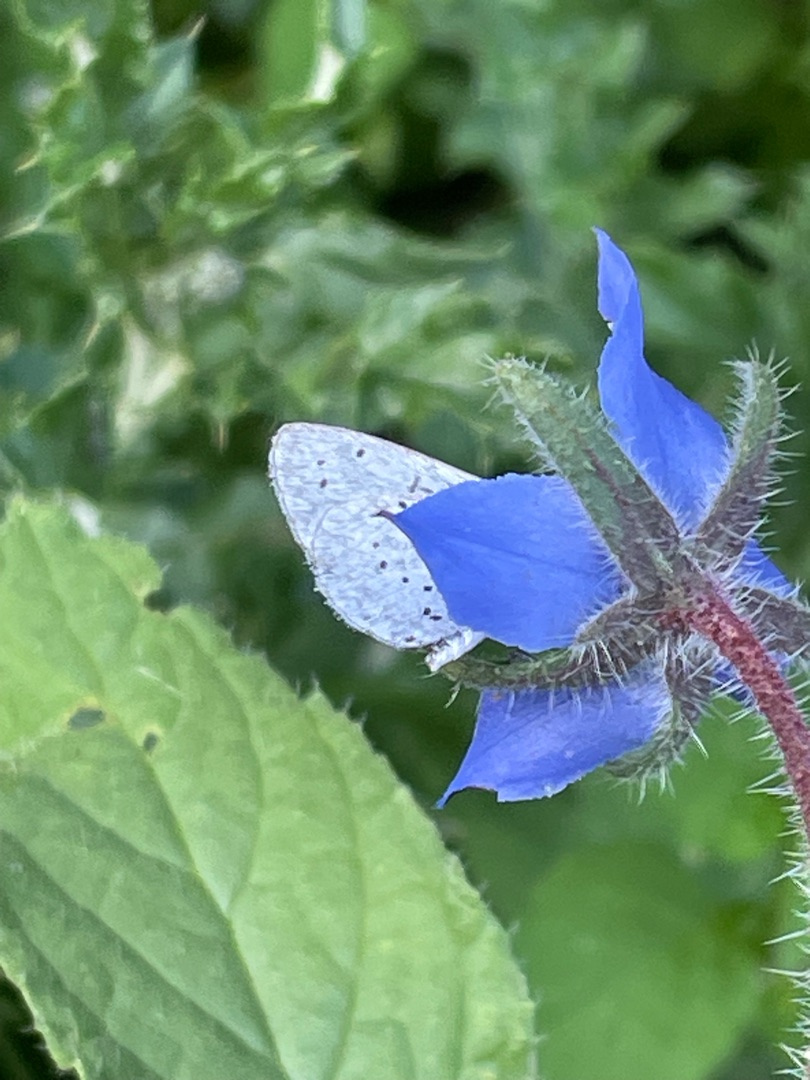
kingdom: Animalia
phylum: Arthropoda
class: Insecta
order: Lepidoptera
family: Lycaenidae
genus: Celastrina
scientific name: Celastrina argiolus
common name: Skovblåfugl
